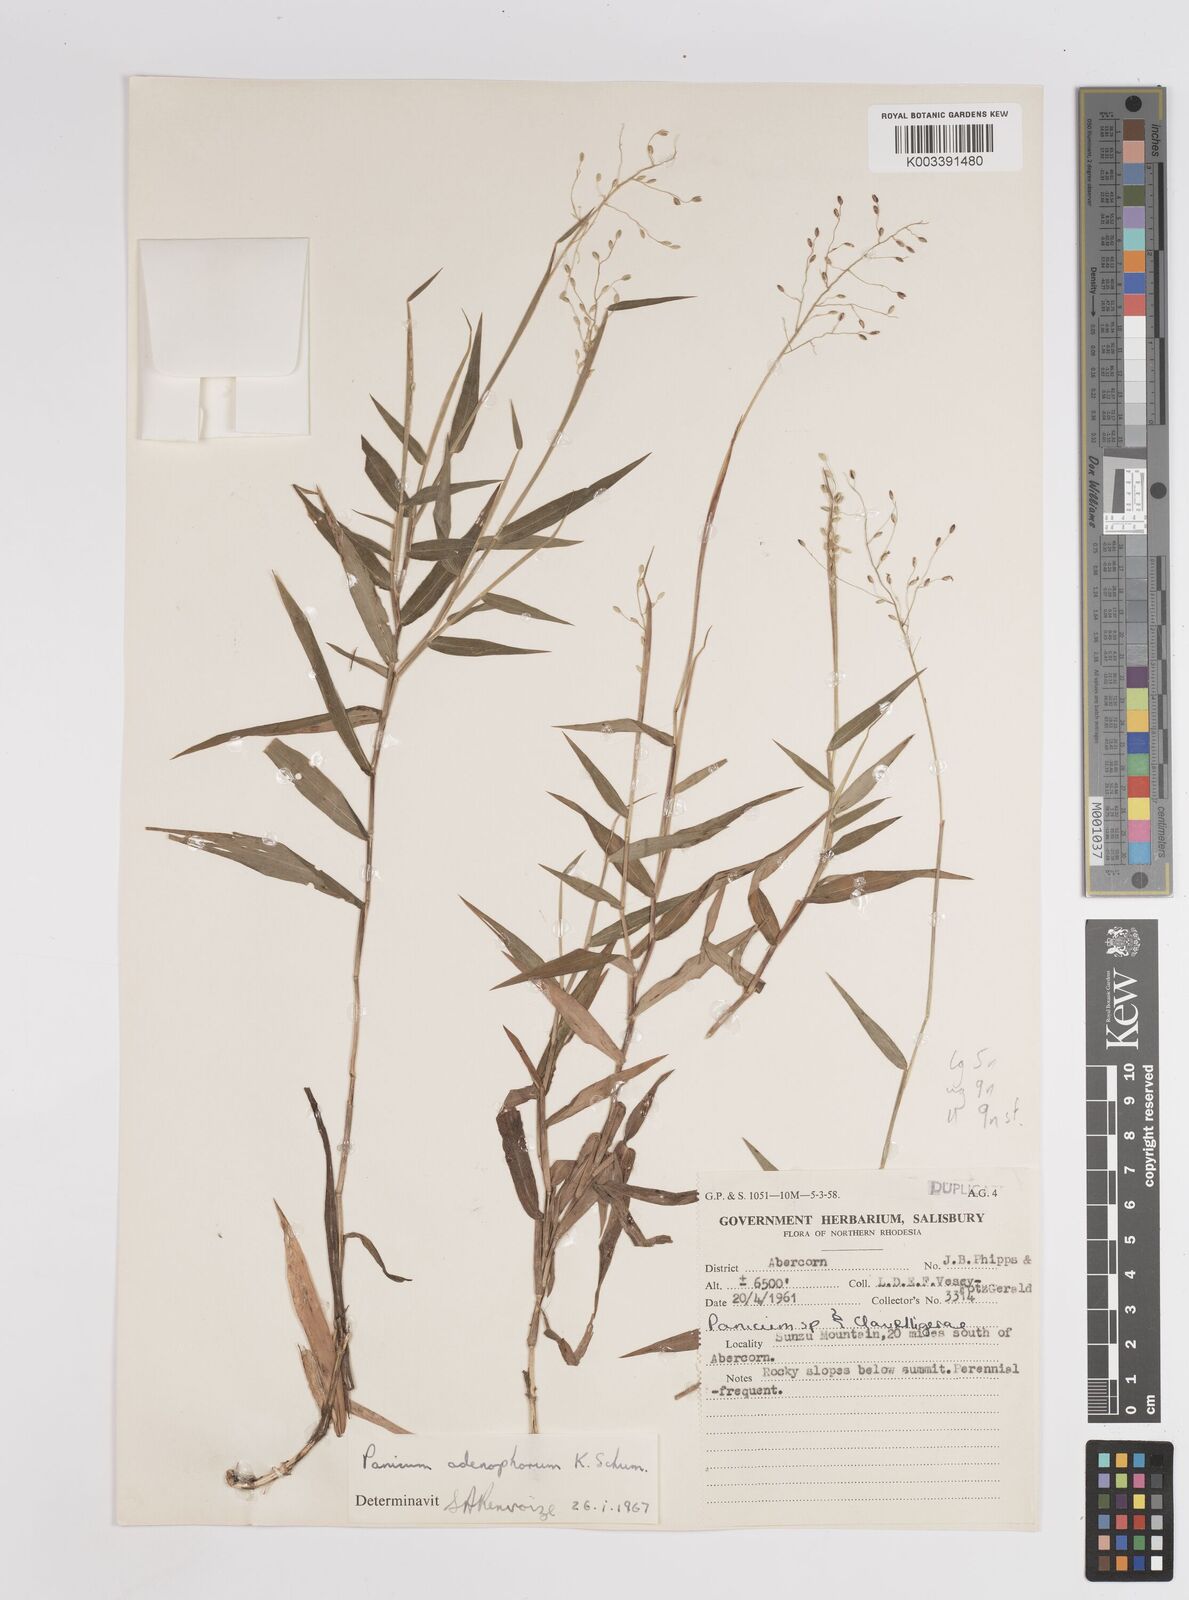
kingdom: Plantae
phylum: Tracheophyta
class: Liliopsida
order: Poales
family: Poaceae
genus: Adenochloa
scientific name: Adenochloa bullockii
